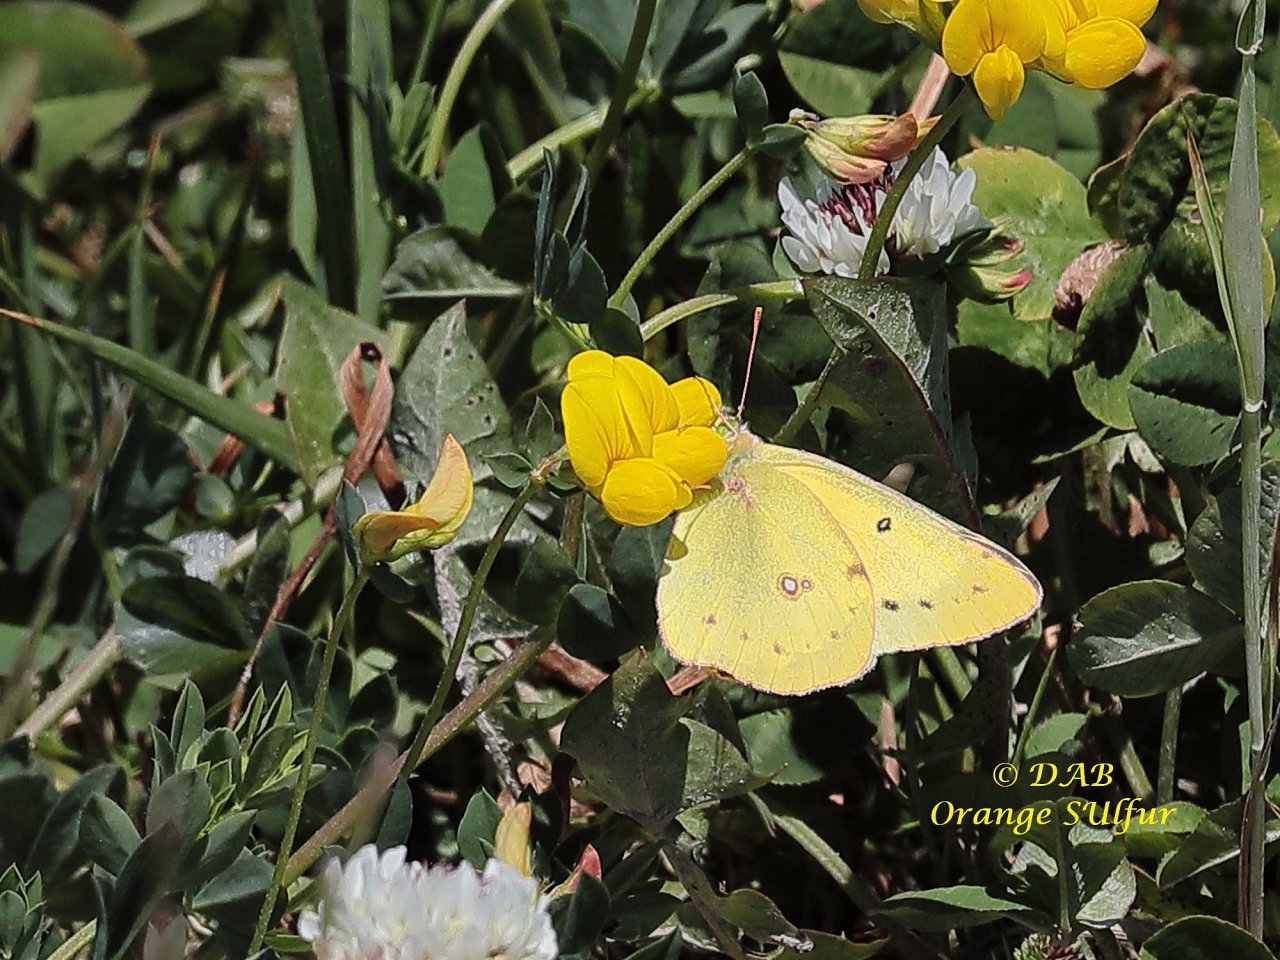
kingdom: Animalia
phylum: Arthropoda
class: Insecta
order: Lepidoptera
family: Pieridae
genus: Colias
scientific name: Colias eurytheme
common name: Orange Sulphur
